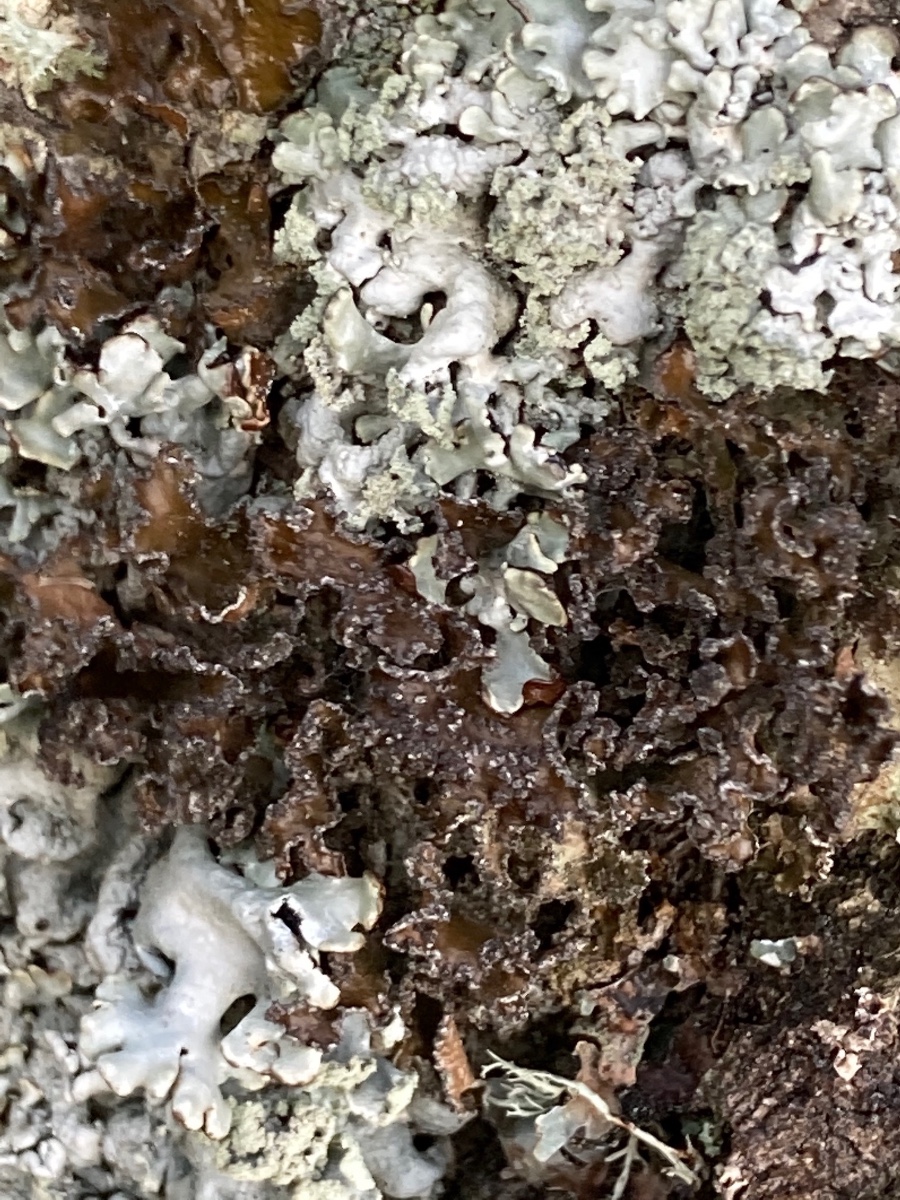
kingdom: Fungi
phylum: Ascomycota
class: Lecanoromycetes
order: Lecanorales
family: Parmeliaceae
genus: Nephromopsis
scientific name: Nephromopsis chlorophylla
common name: olivenbrun kruslav
